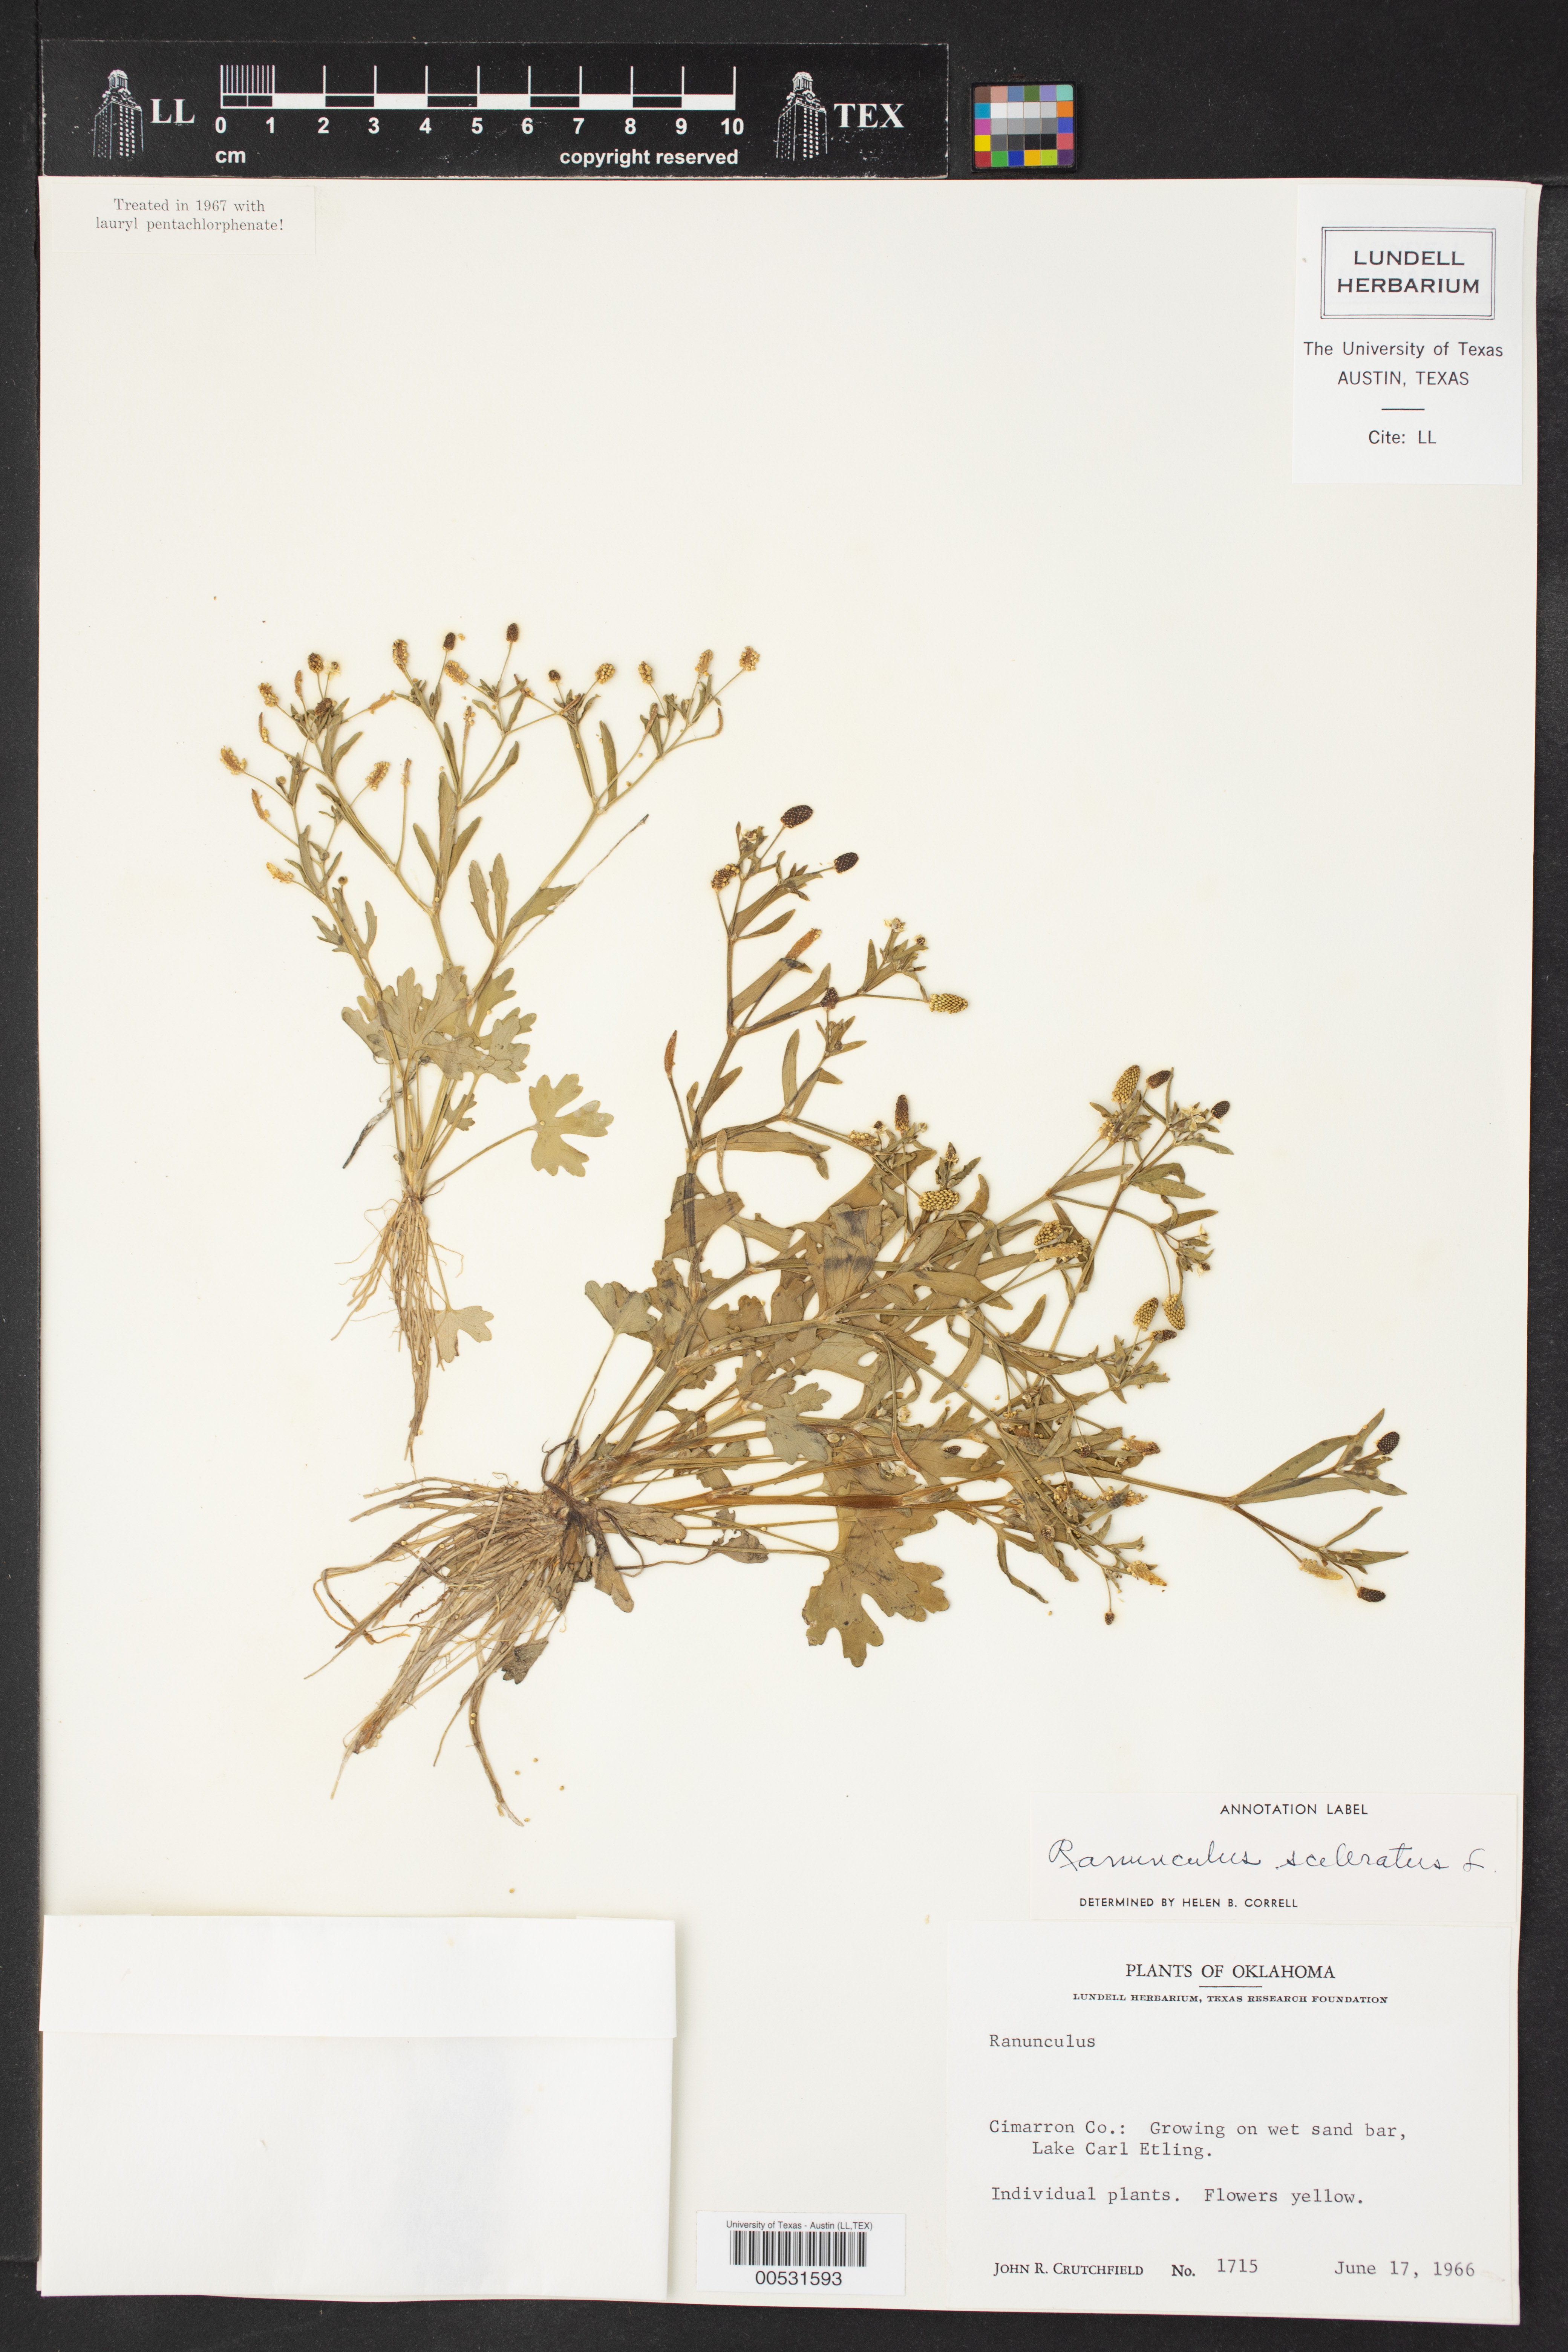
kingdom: Plantae
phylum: Tracheophyta
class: Magnoliopsida
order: Ranunculales
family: Ranunculaceae
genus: Ranunculus
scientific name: Ranunculus sceleratus
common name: Celery-leaved buttercup
